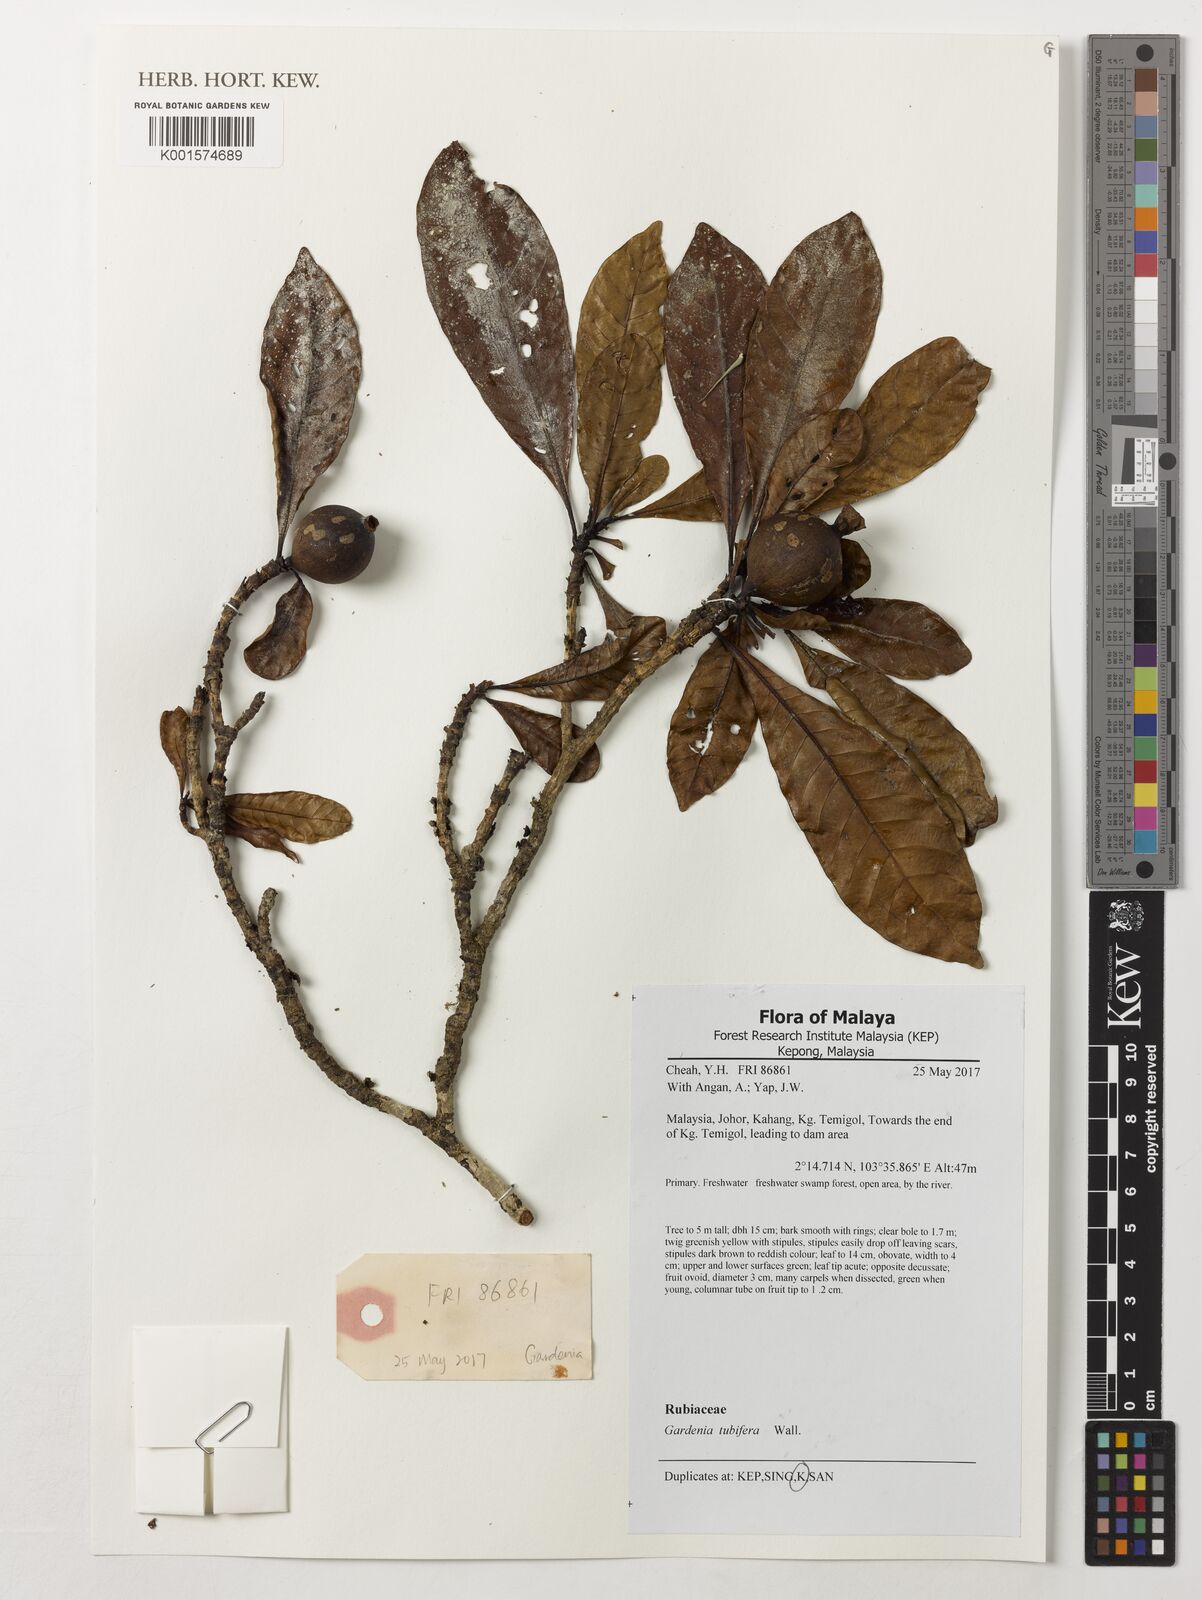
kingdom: Plantae
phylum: Tracheophyta
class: Magnoliopsida
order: Gentianales
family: Rubiaceae
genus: Gardenia
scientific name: Gardenia tubifera
